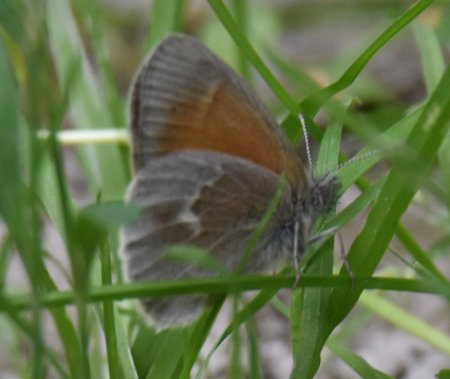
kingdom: Animalia
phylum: Arthropoda
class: Insecta
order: Lepidoptera
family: Nymphalidae
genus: Coenonympha
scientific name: Coenonympha tullia
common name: Large Heath
